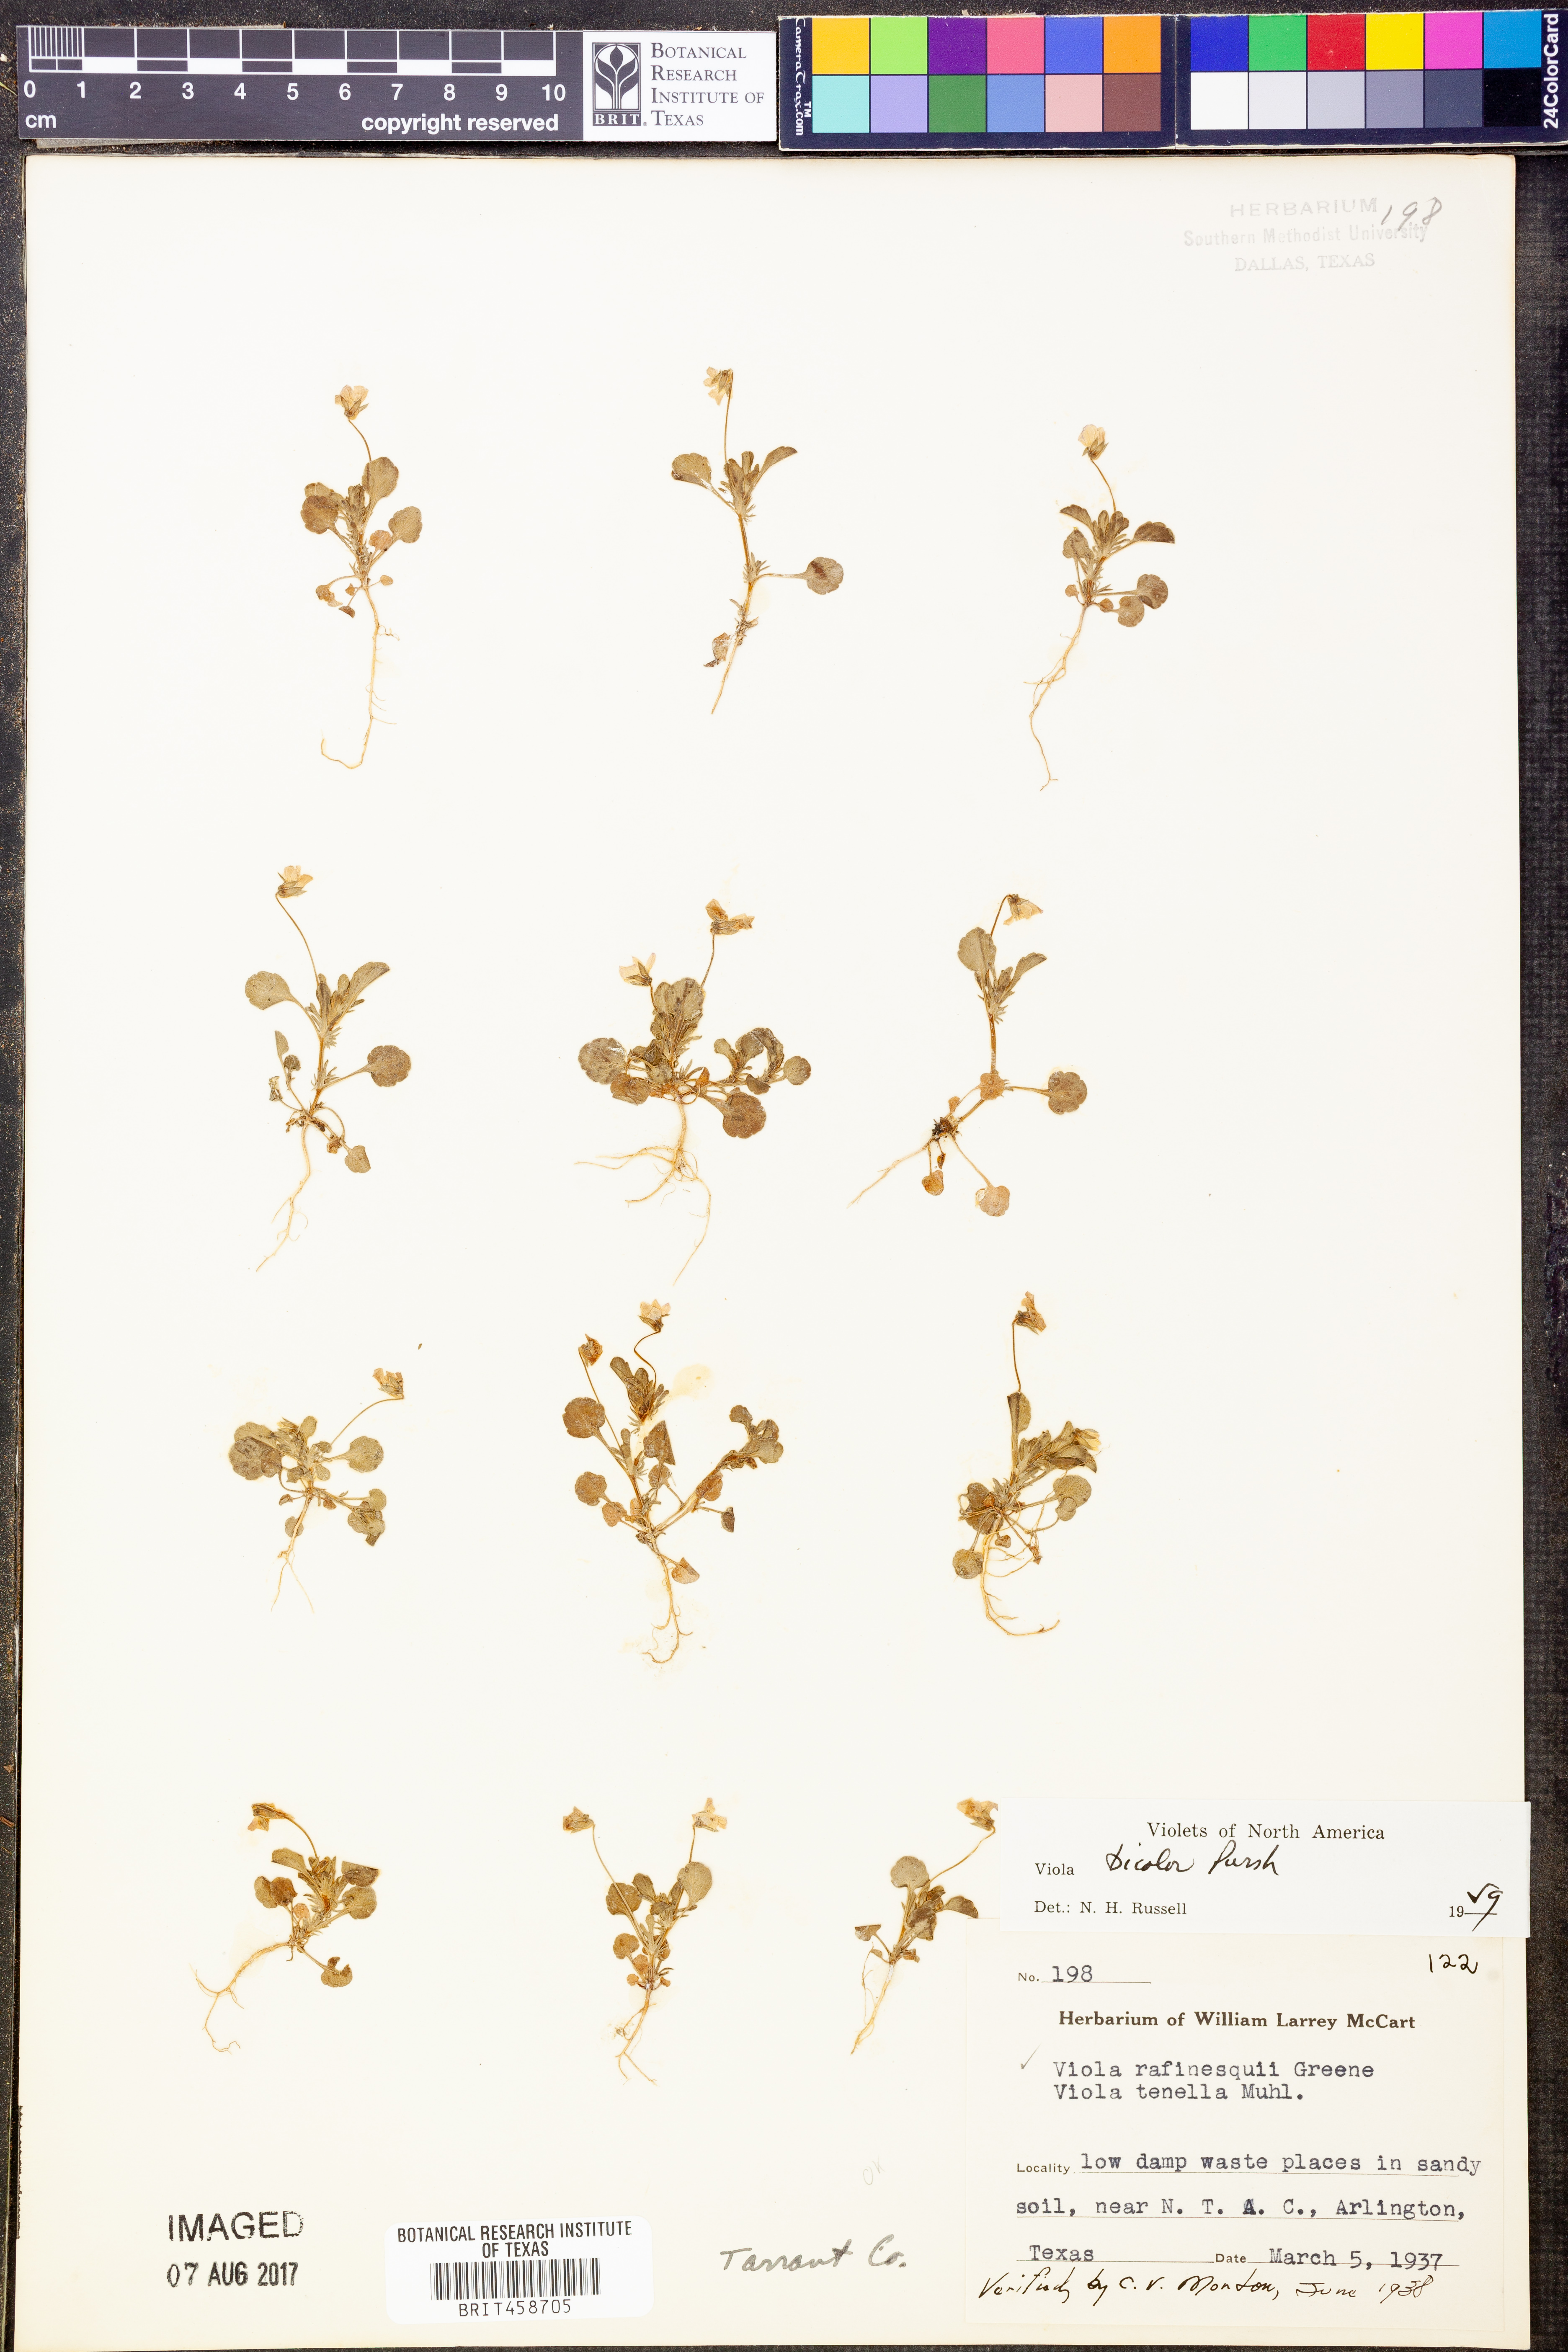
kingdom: Plantae
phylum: Tracheophyta
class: Magnoliopsida
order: Malpighiales
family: Violaceae
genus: Viola
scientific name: Viola rafinesquei
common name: American field pansy
